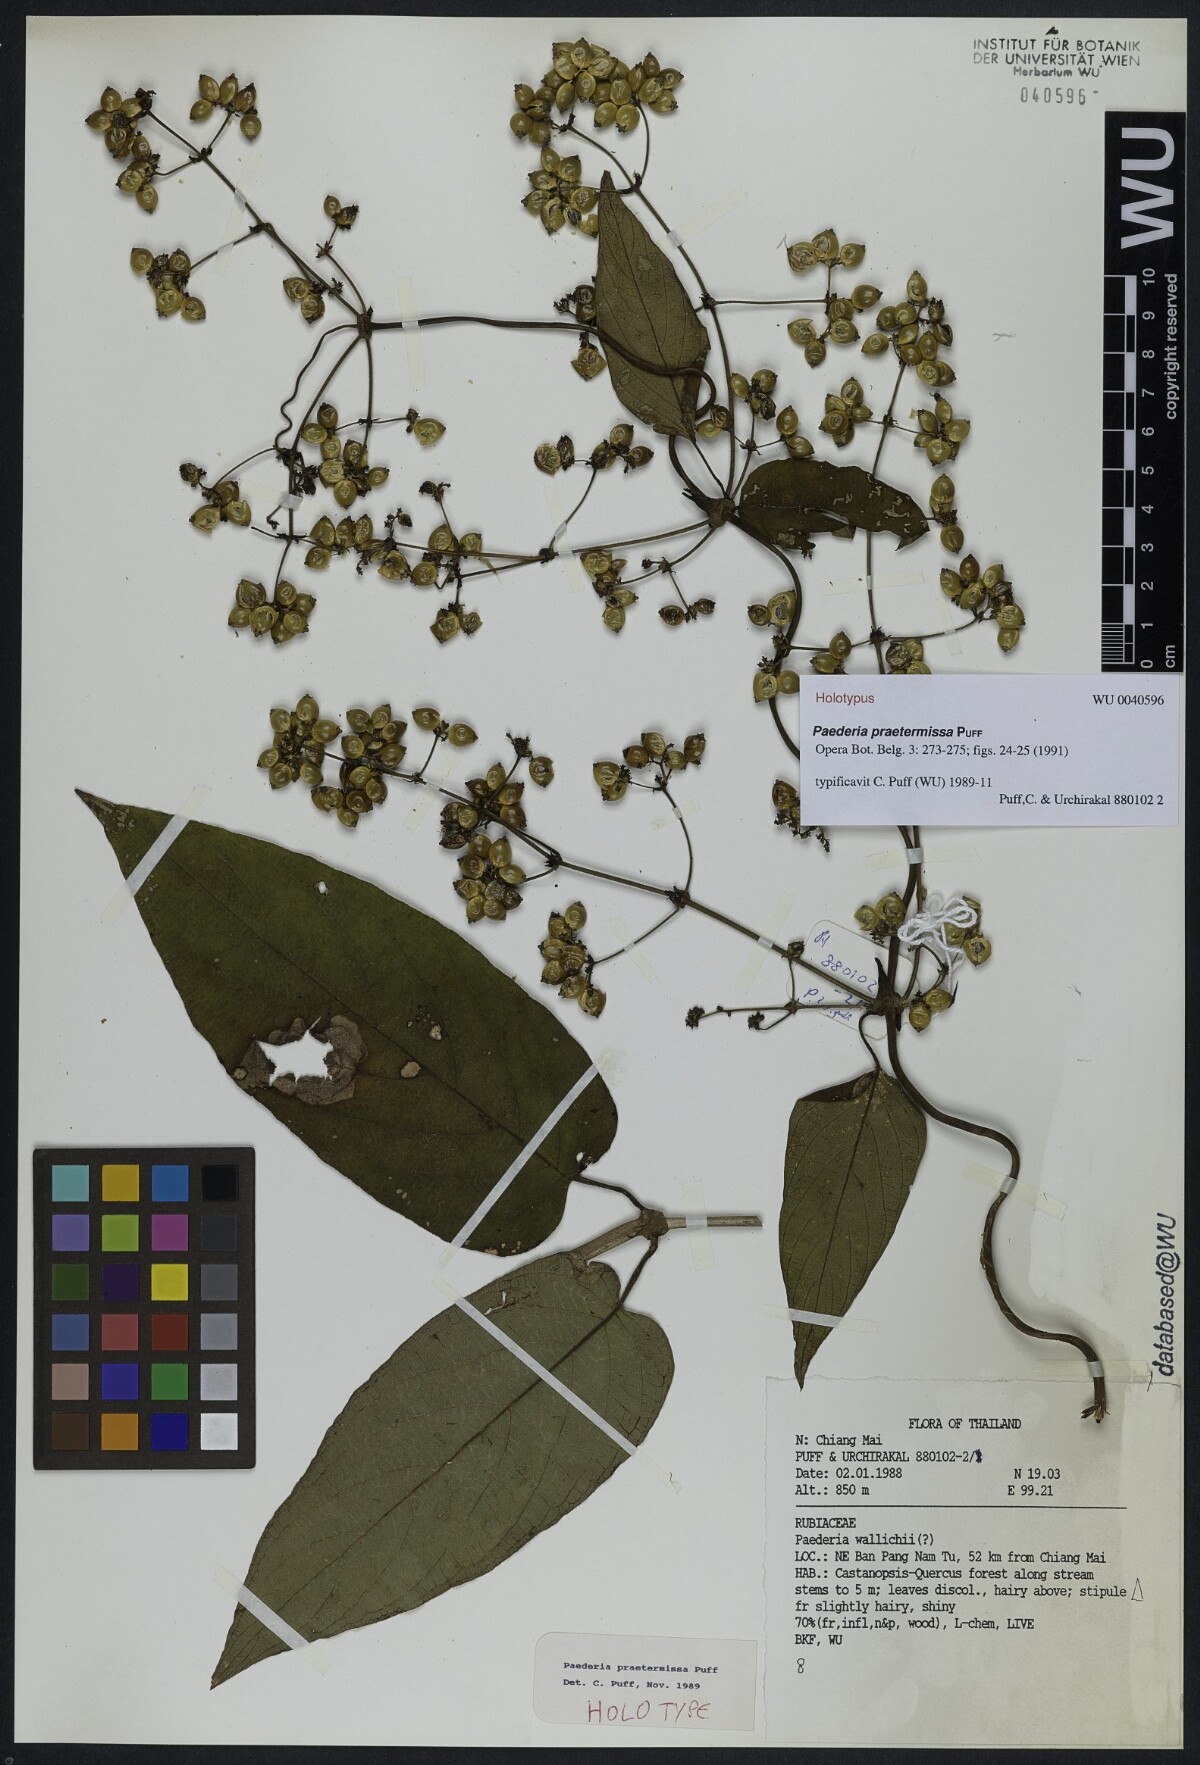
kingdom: Plantae
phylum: Tracheophyta
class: Magnoliopsida
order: Gentianales
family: Rubiaceae
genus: Paederia
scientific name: Paederia praetermissa
